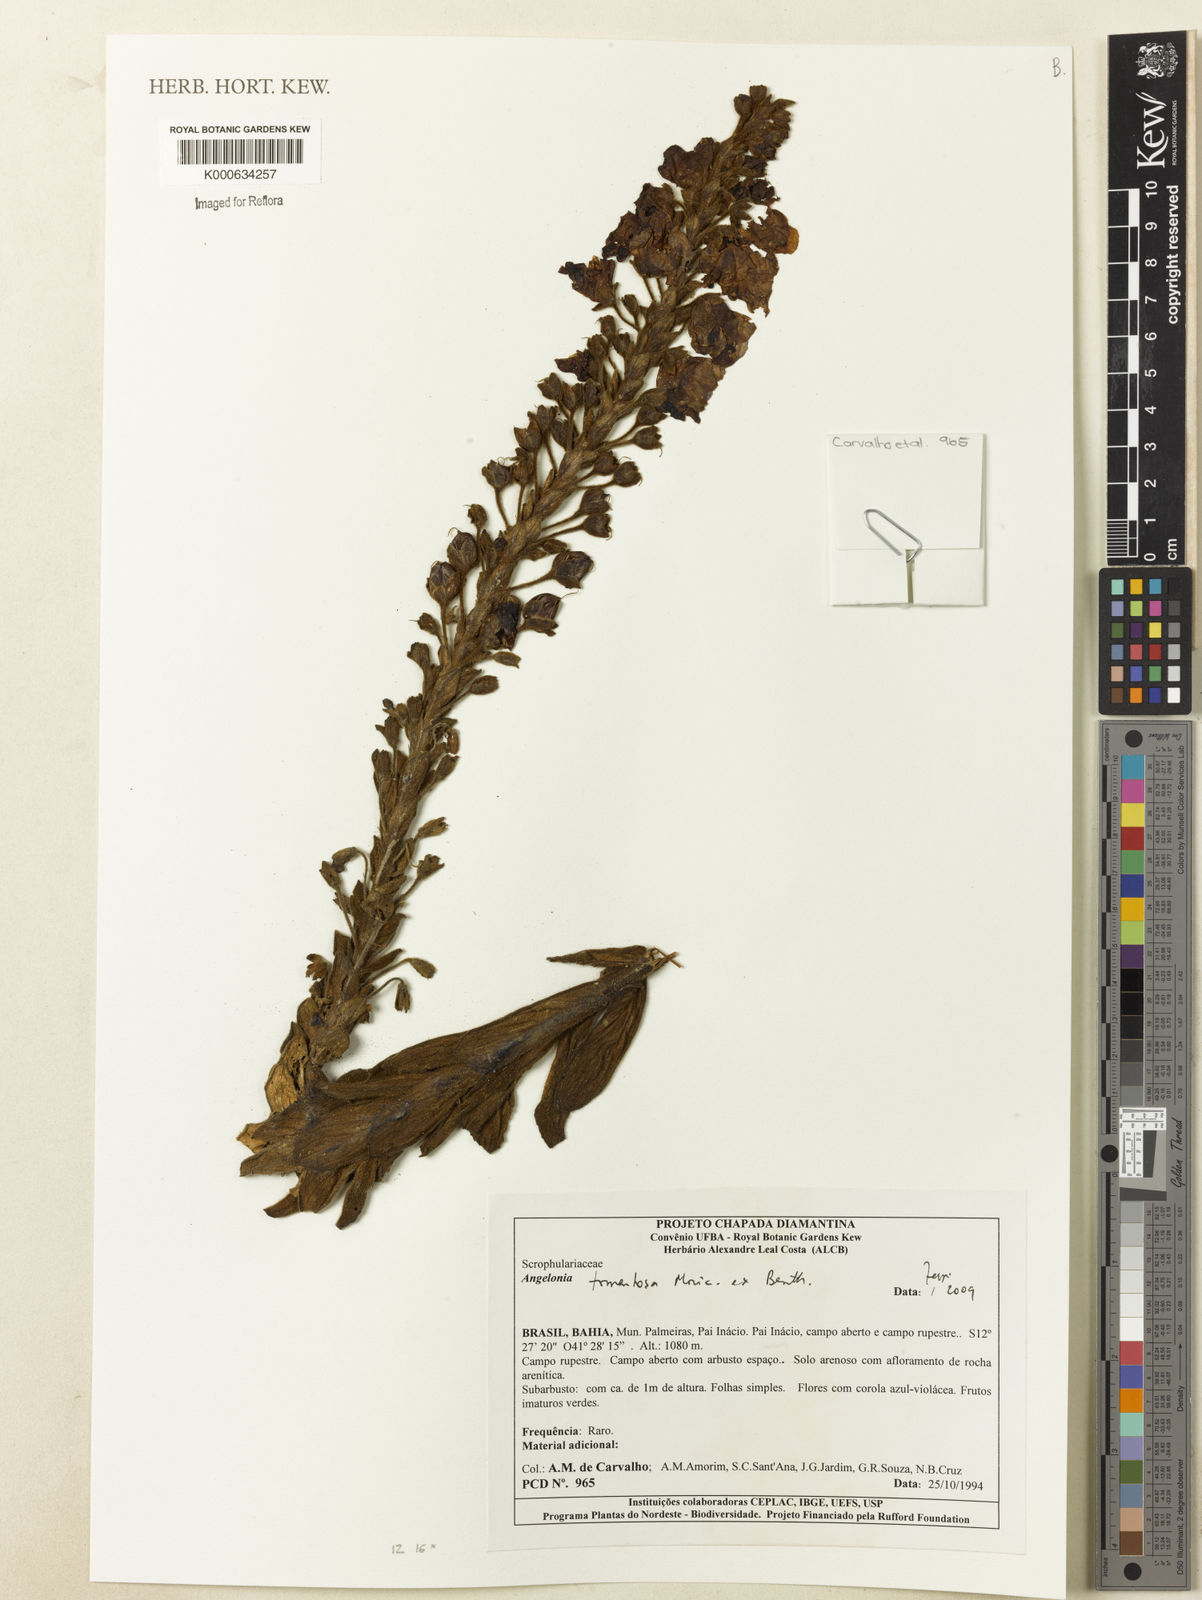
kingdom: Plantae
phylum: Tracheophyta
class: Magnoliopsida
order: Lamiales
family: Plantaginaceae
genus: Angelonia
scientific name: Angelonia tomentosa
